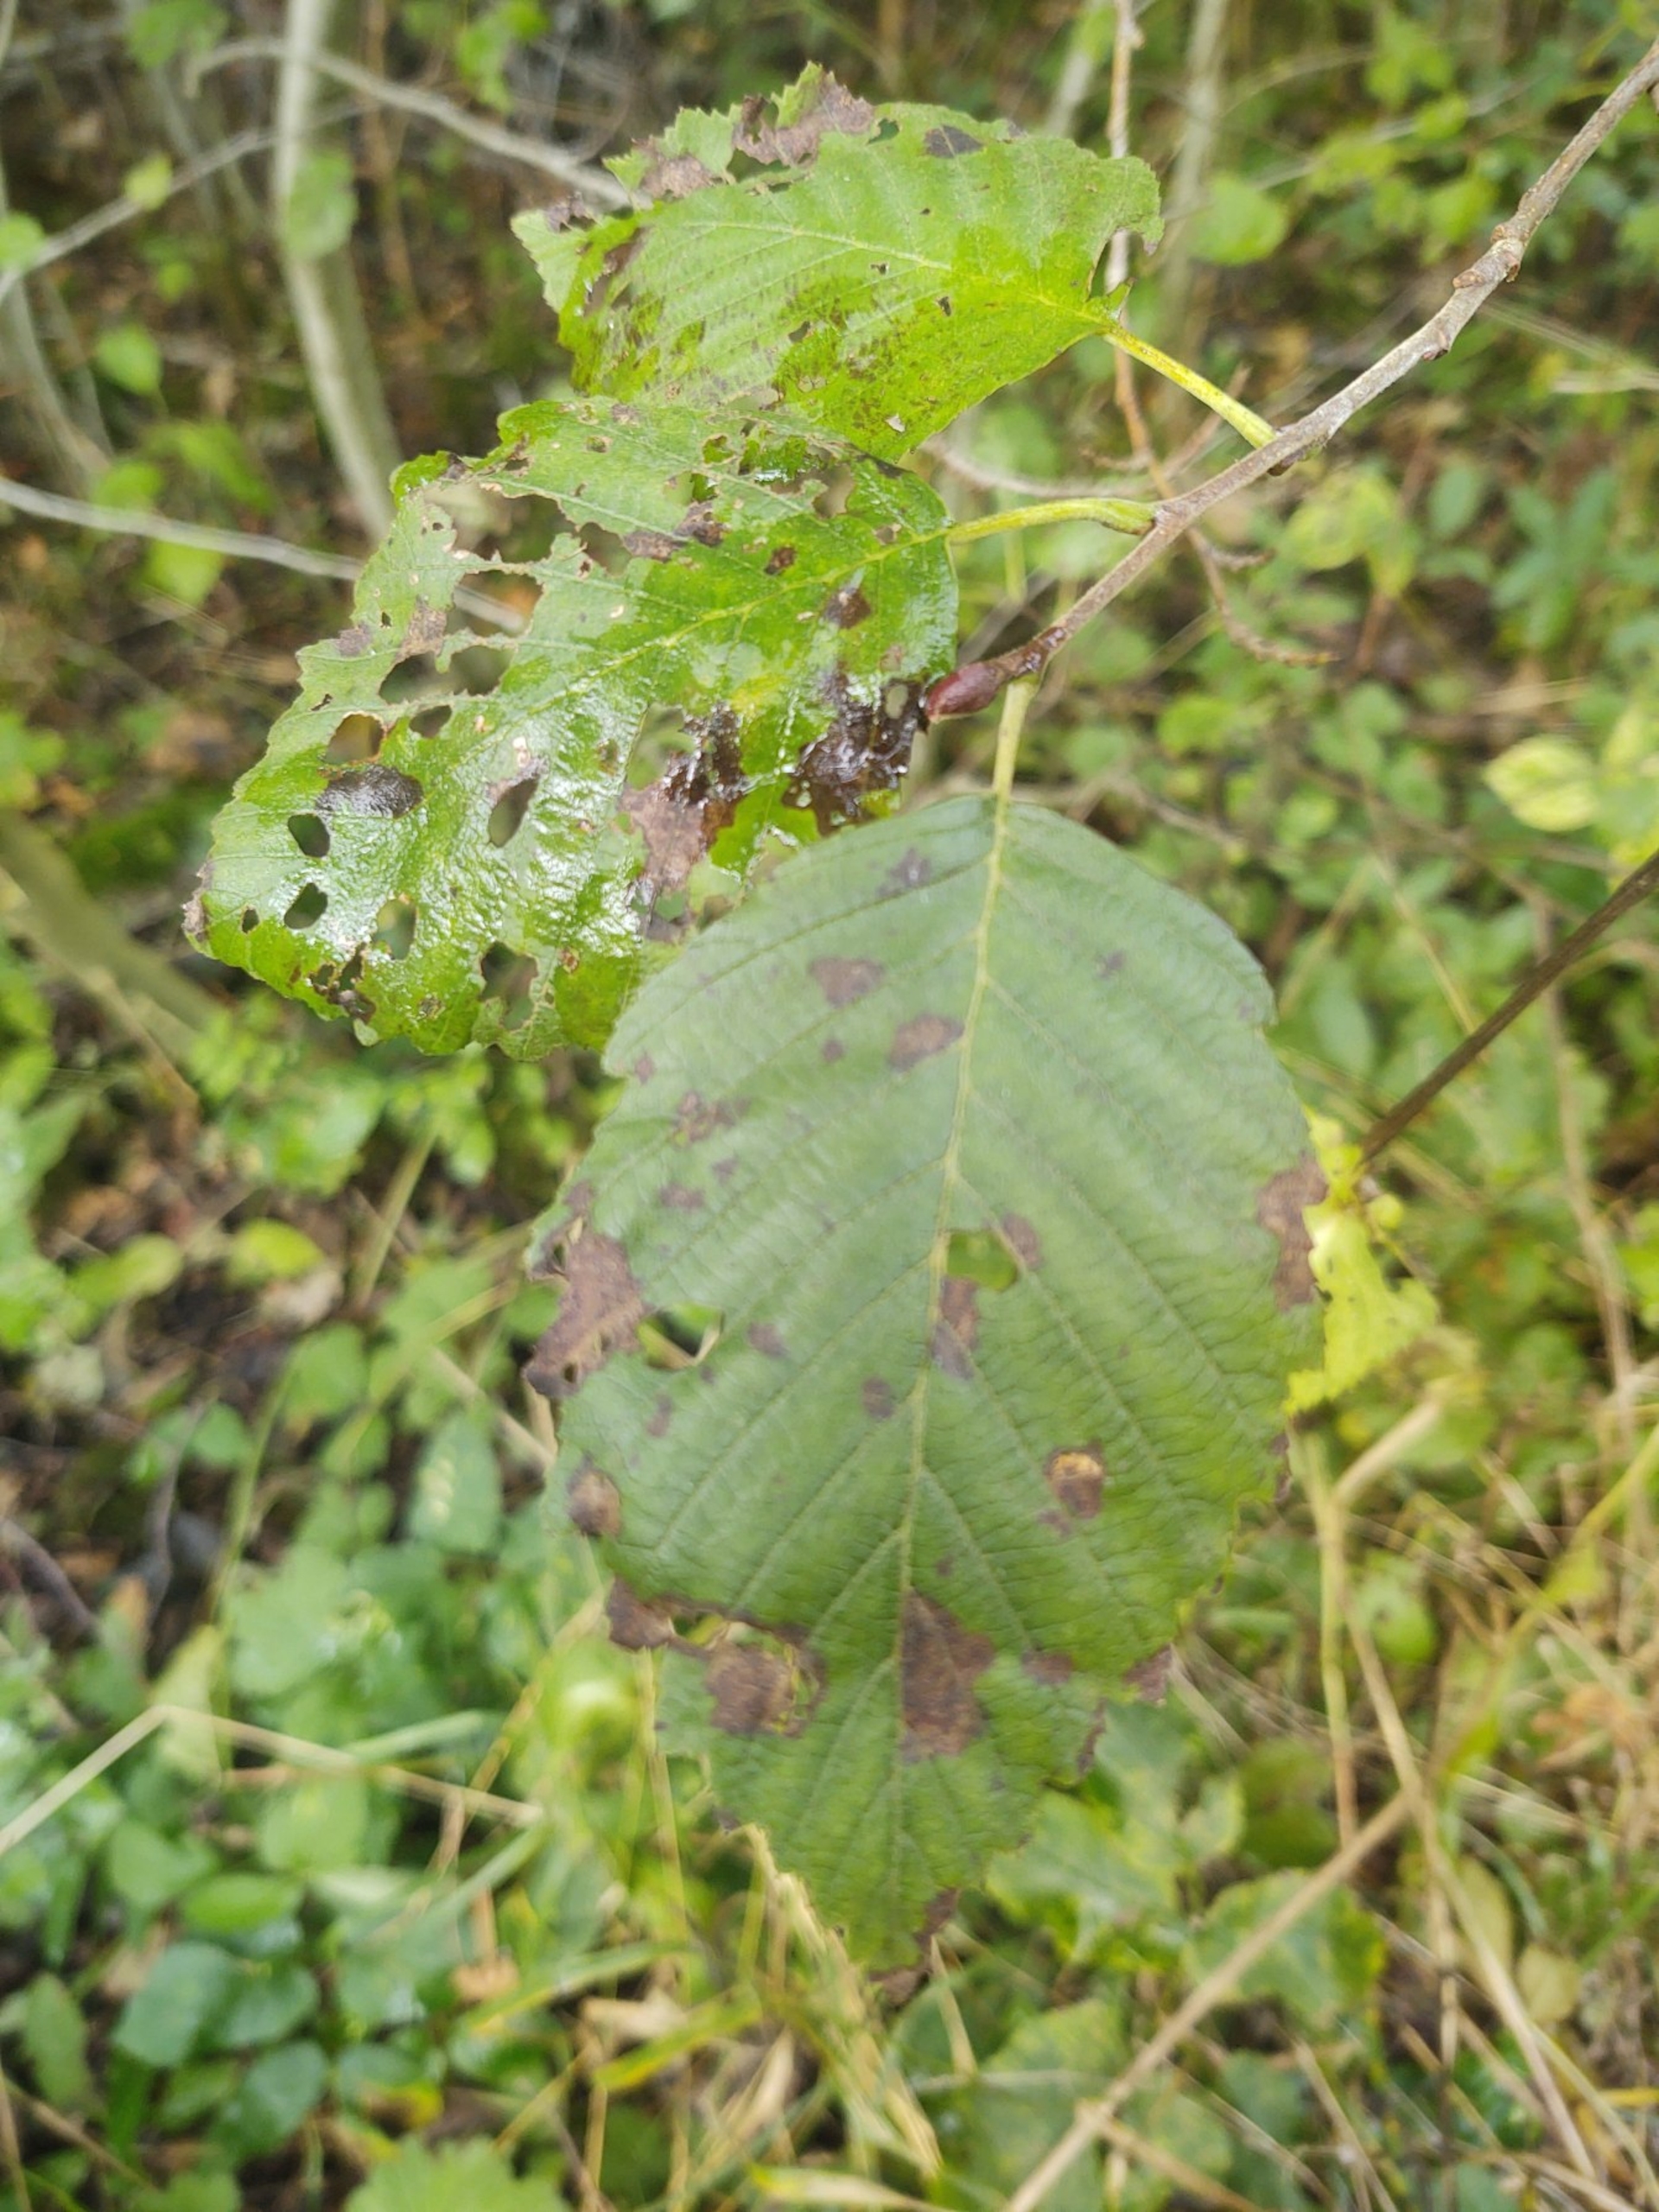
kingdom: Plantae
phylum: Tracheophyta
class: Magnoliopsida
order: Fagales
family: Betulaceae
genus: Alnus
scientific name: Alnus incana
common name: Grå-el/hvid-el
